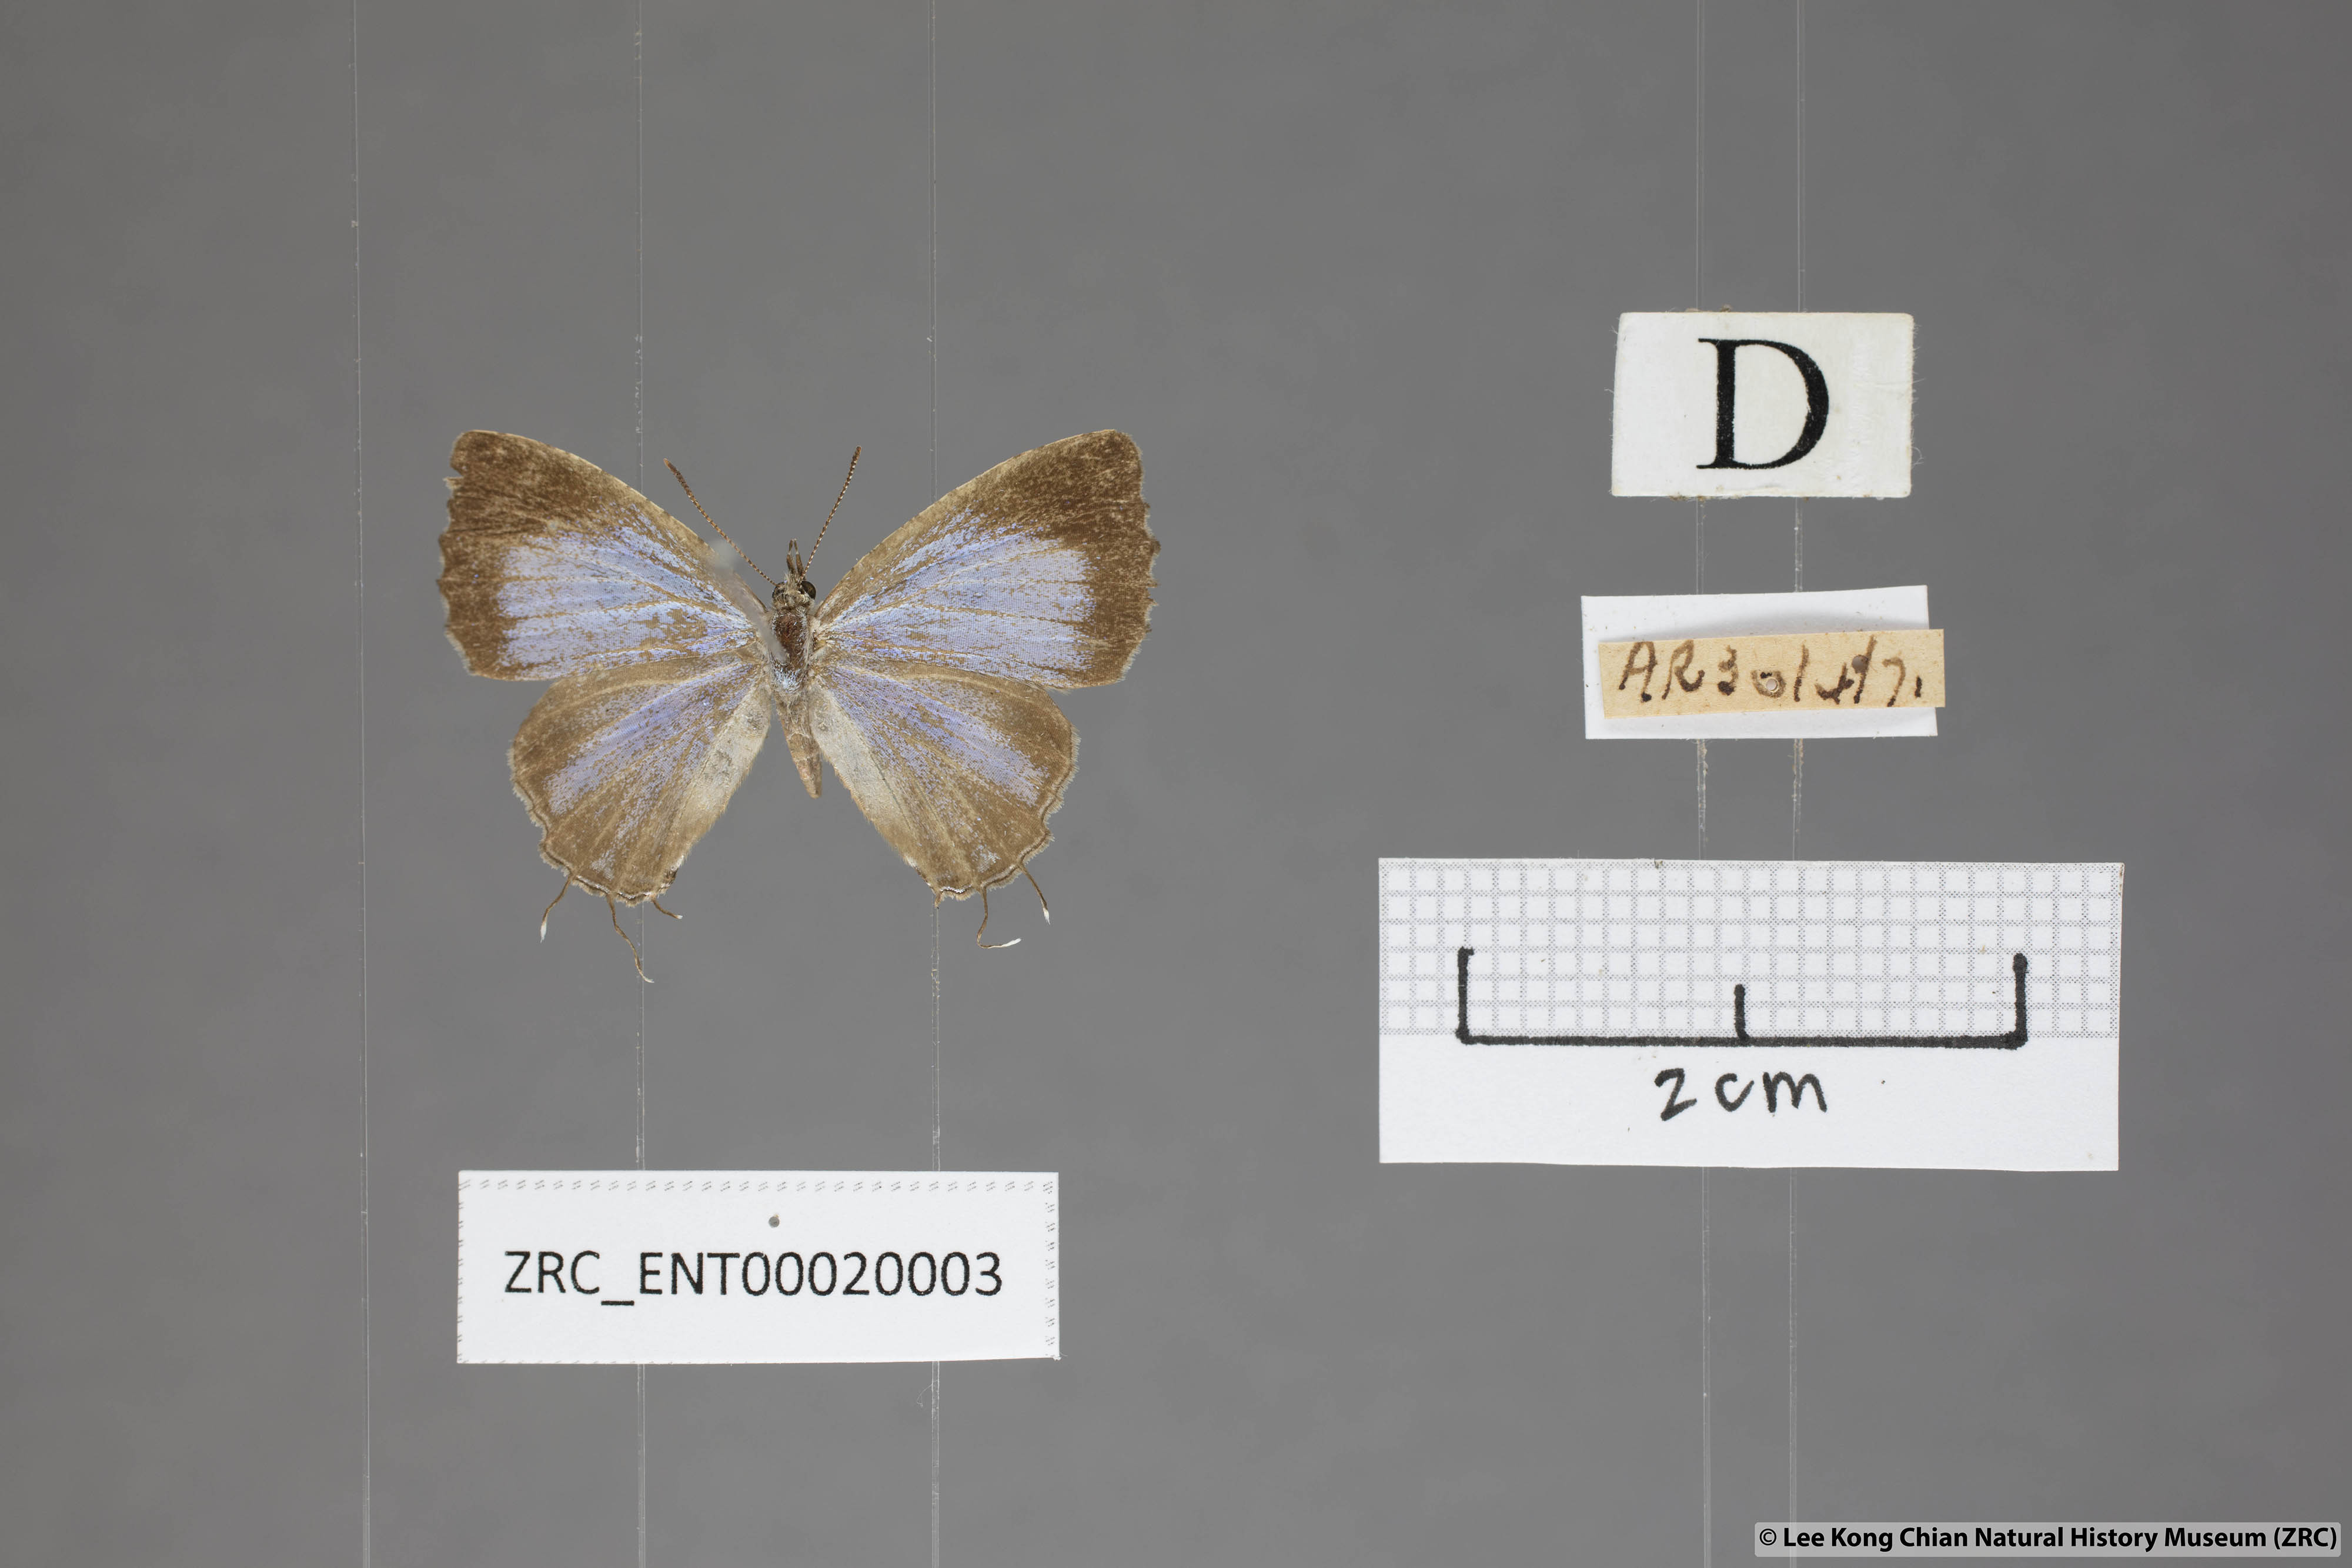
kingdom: Animalia
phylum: Arthropoda
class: Insecta
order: Lepidoptera
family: Lycaenidae
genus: Catapaecilma
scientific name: Catapaecilma elegans
